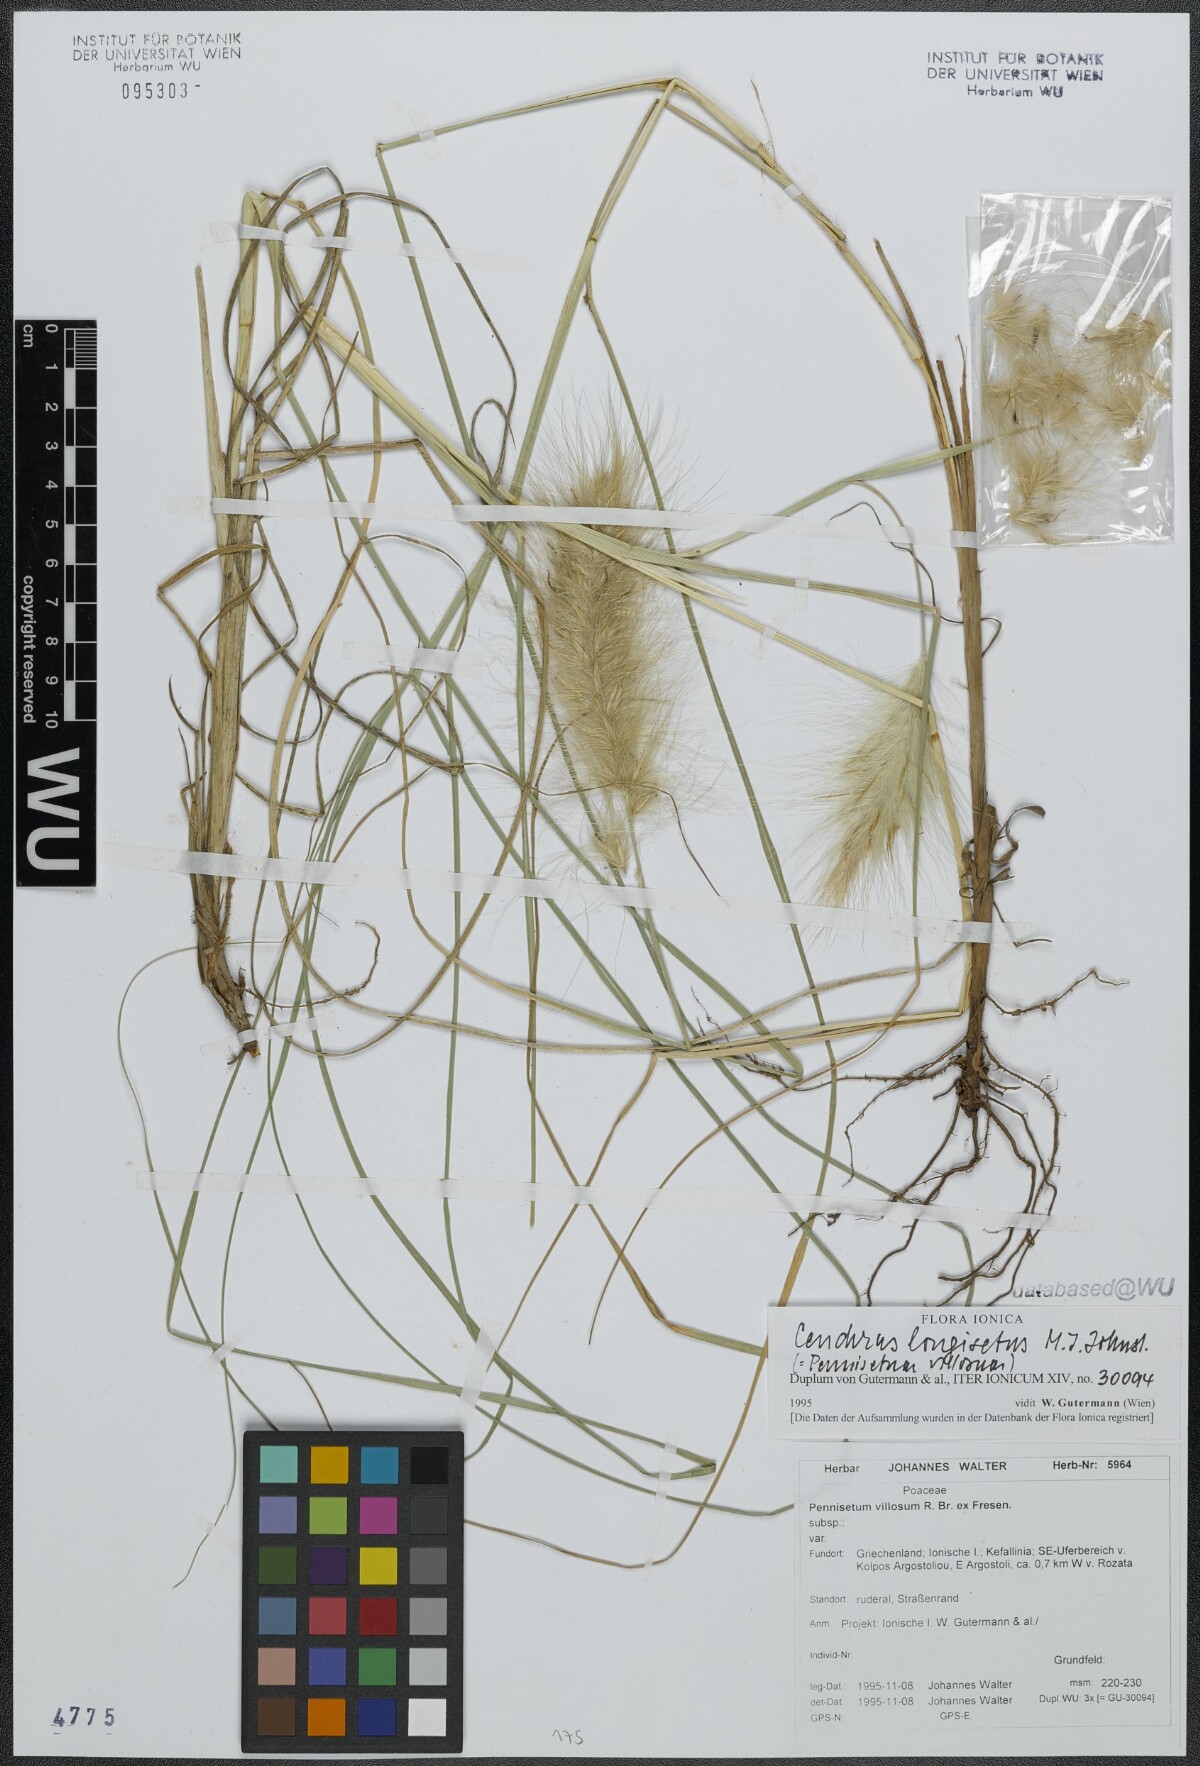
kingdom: Plantae
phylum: Tracheophyta
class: Liliopsida
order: Poales
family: Poaceae
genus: Cenchrus
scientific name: Cenchrus longisetus
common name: Feathertop
